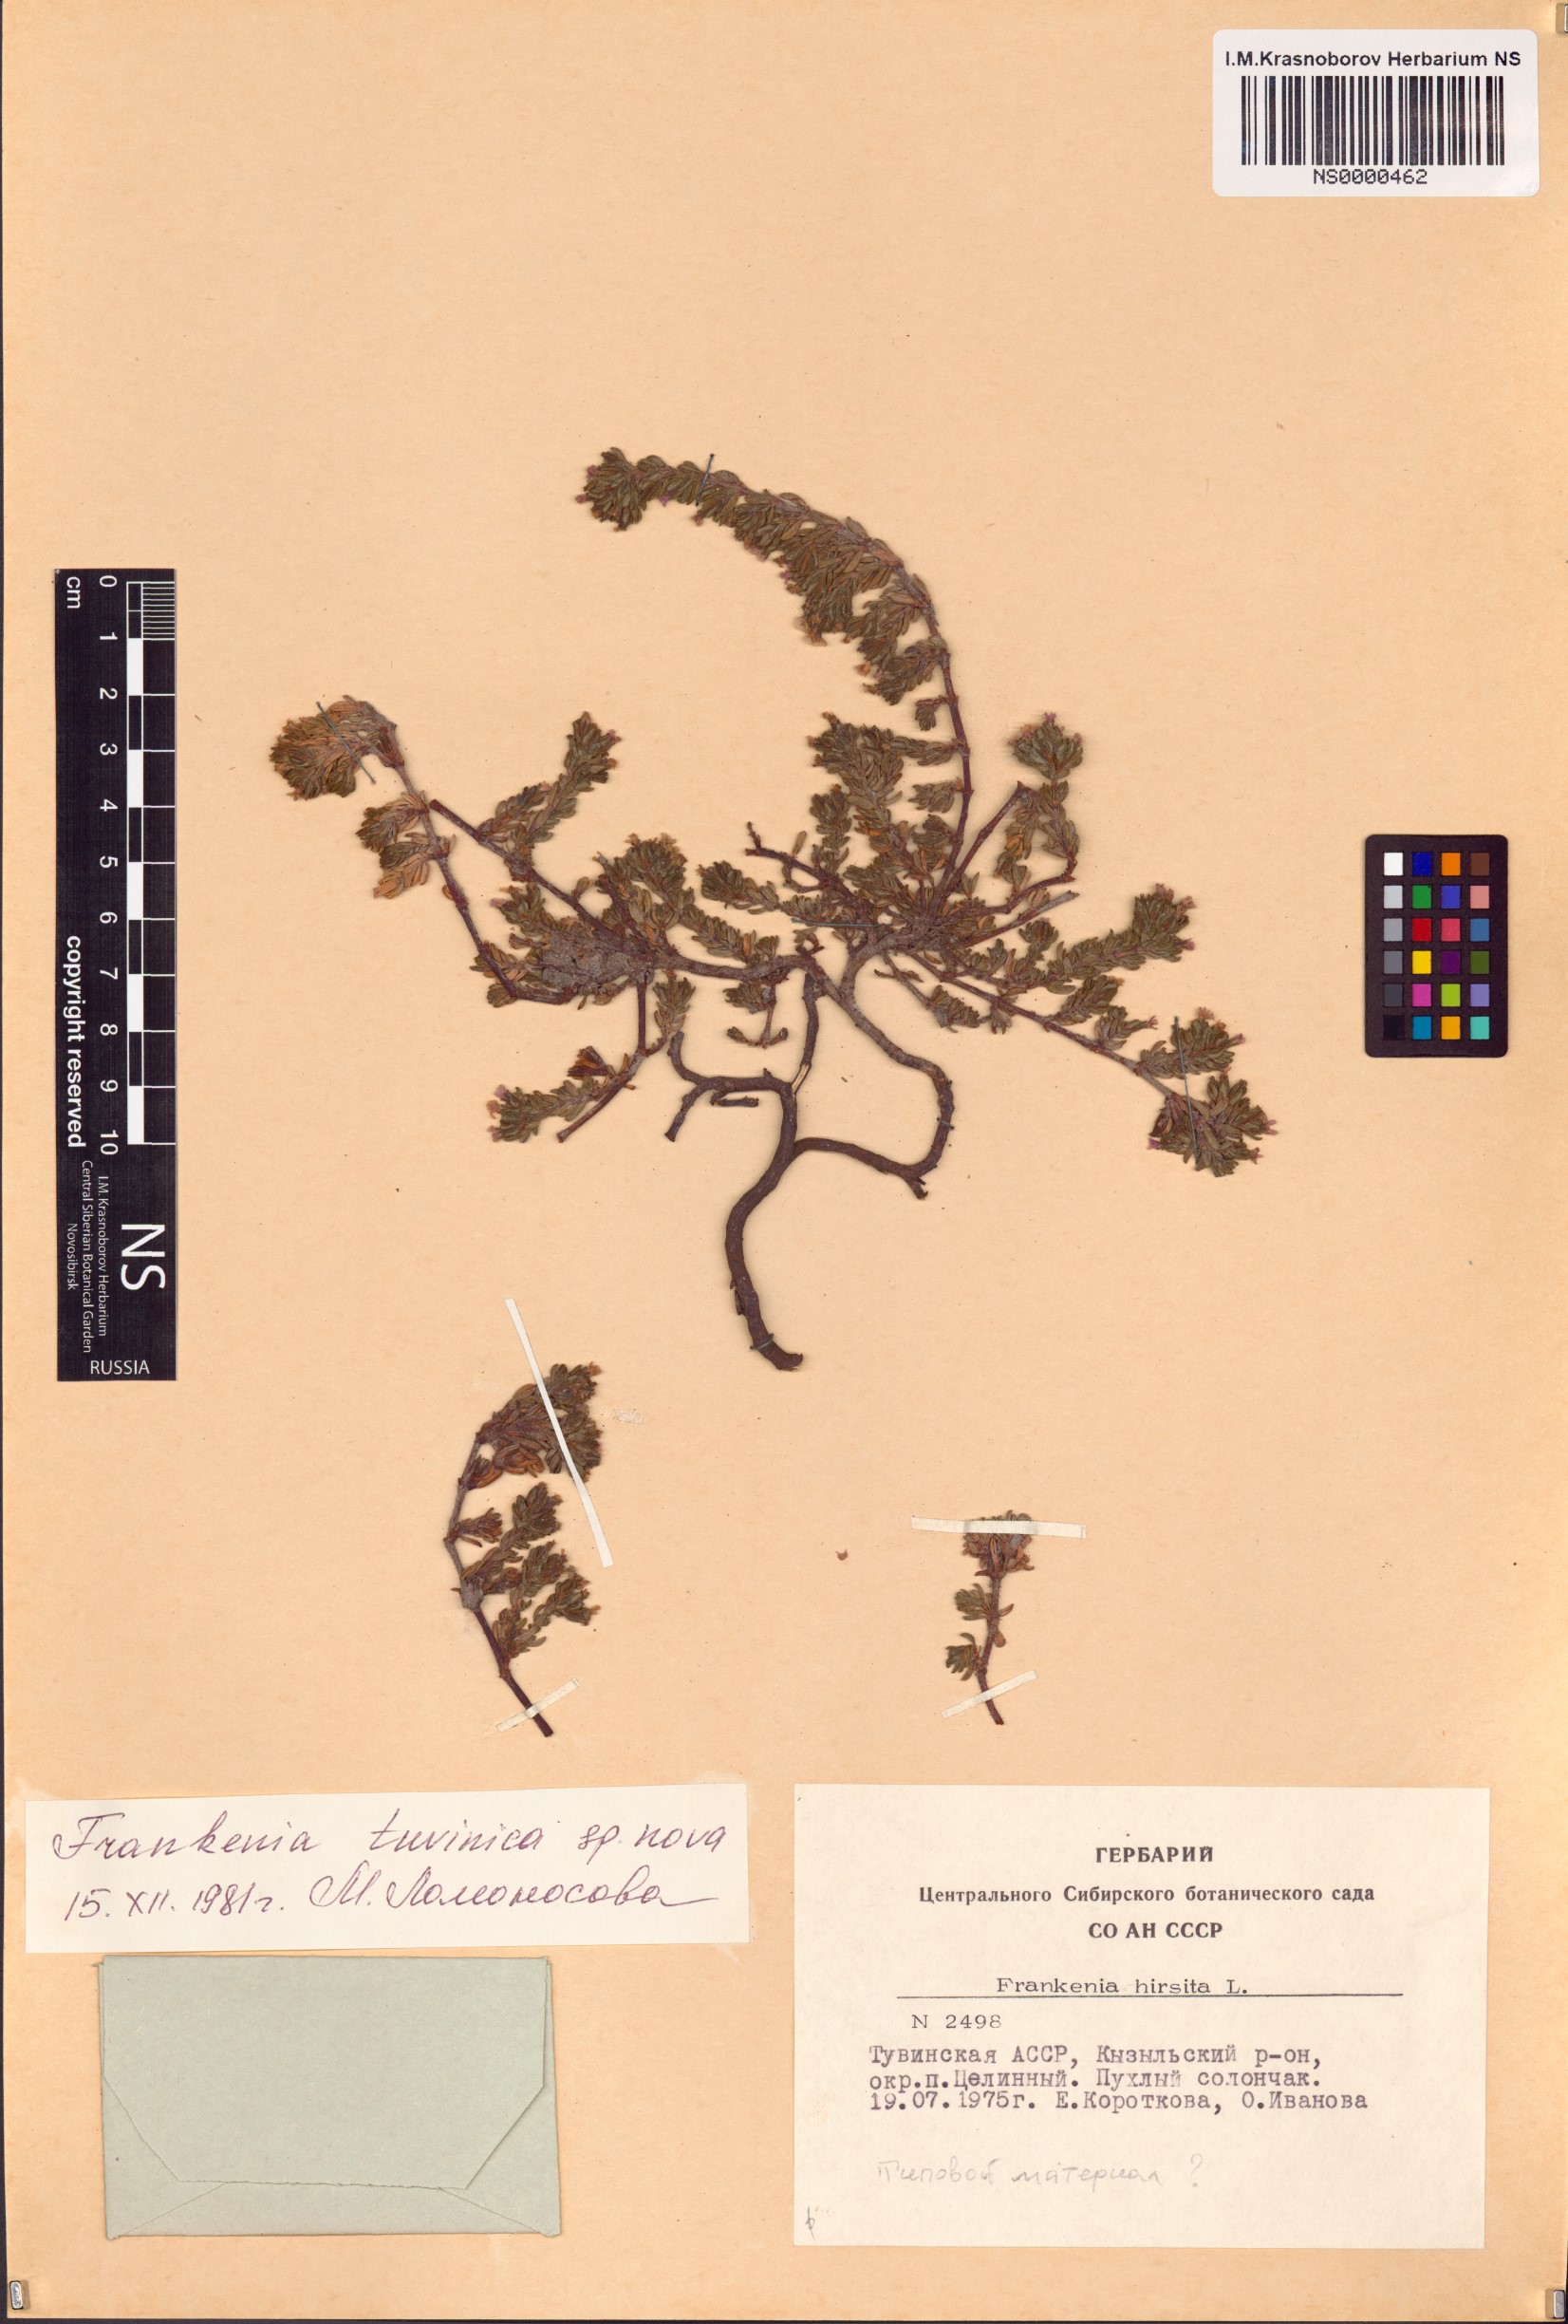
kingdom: Plantae
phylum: Tracheophyta
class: Magnoliopsida
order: Caryophyllales
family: Frankeniaceae
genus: Frankenia
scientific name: Frankenia tuvinica
